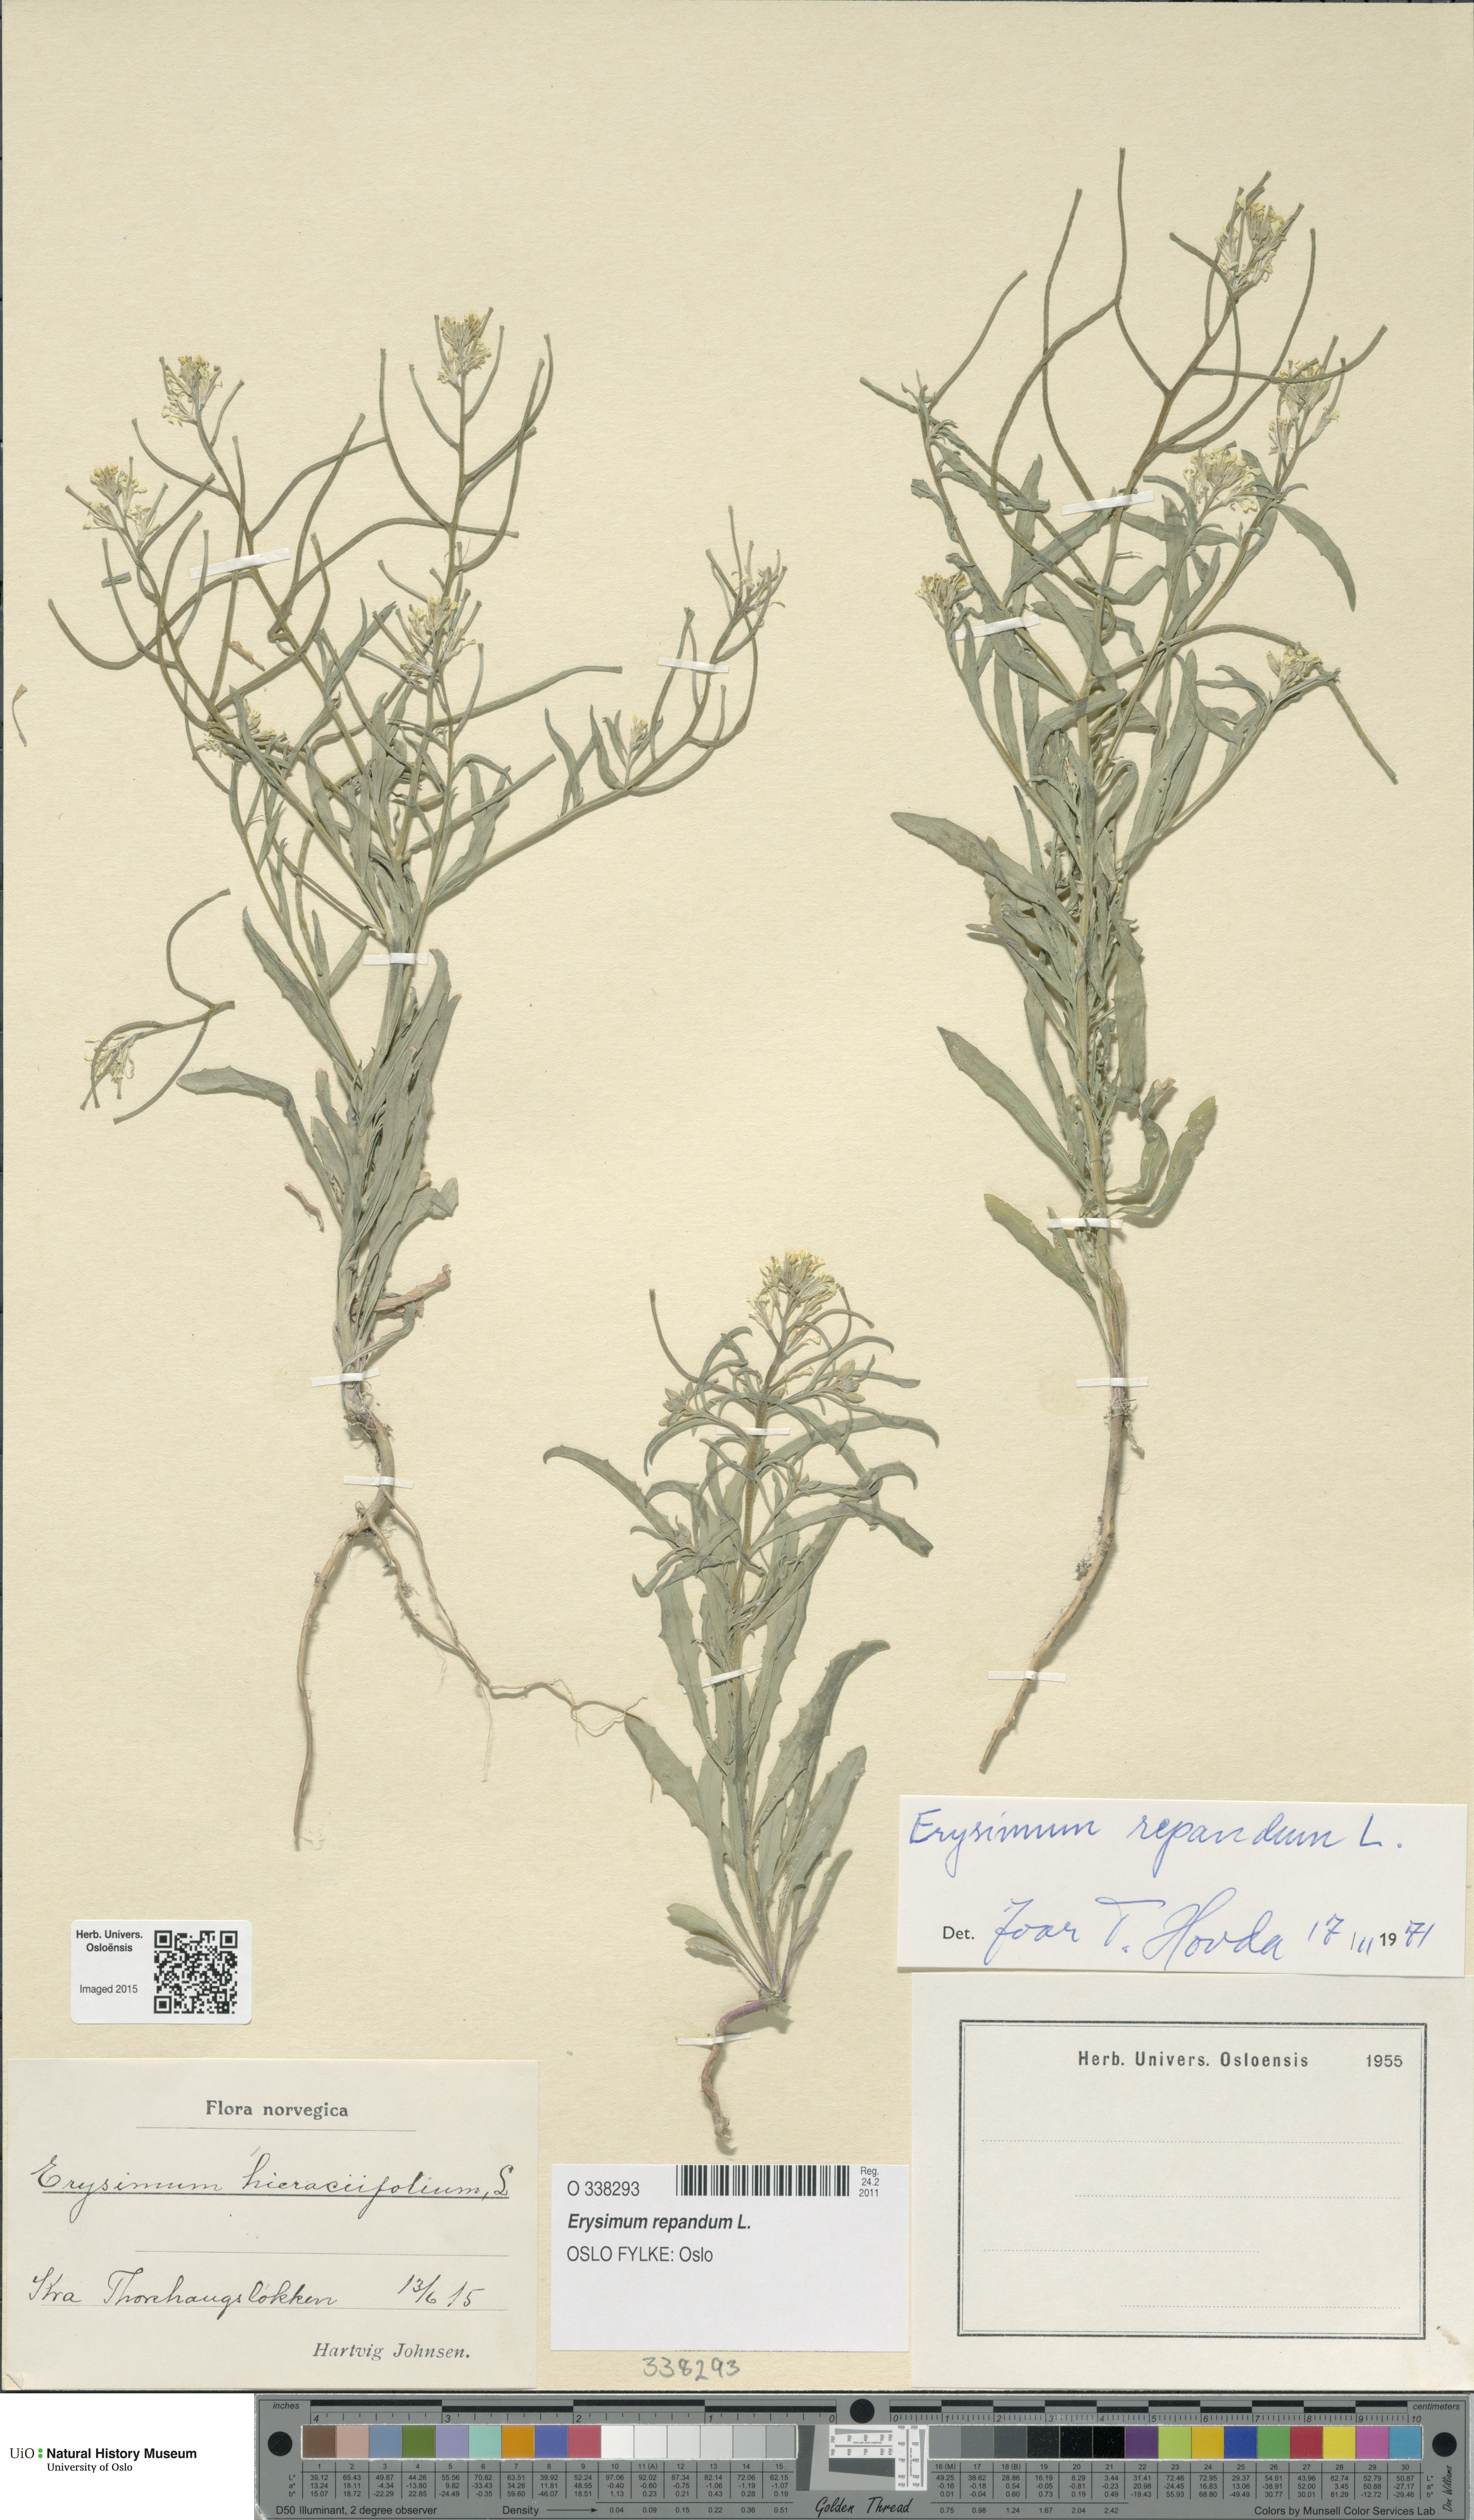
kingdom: Plantae
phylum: Tracheophyta
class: Magnoliopsida
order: Brassicales
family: Brassicaceae
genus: Erysimum
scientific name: Erysimum repandum
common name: Spreading wallflower
